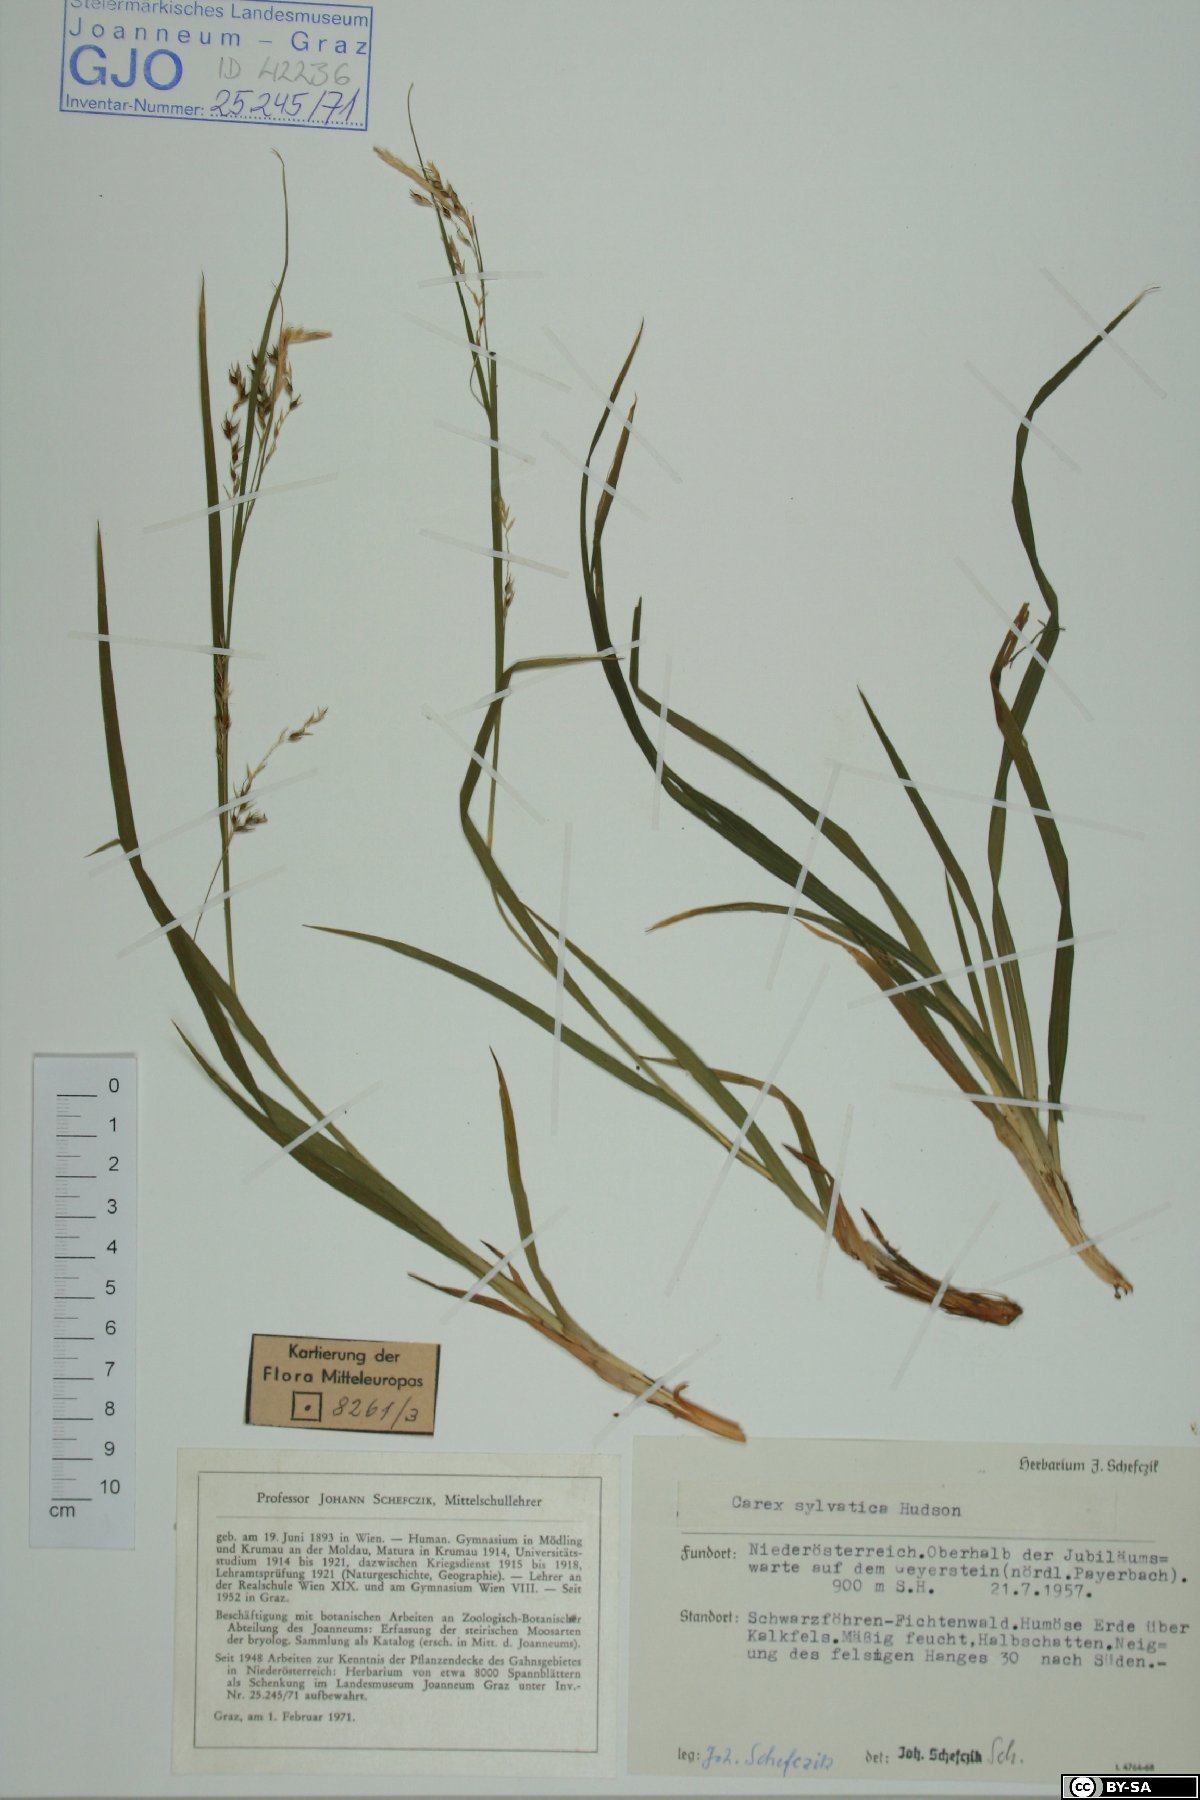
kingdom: Plantae
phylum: Tracheophyta
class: Liliopsida
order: Poales
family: Cyperaceae
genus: Carex
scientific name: Carex sylvatica
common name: Wood-sedge
